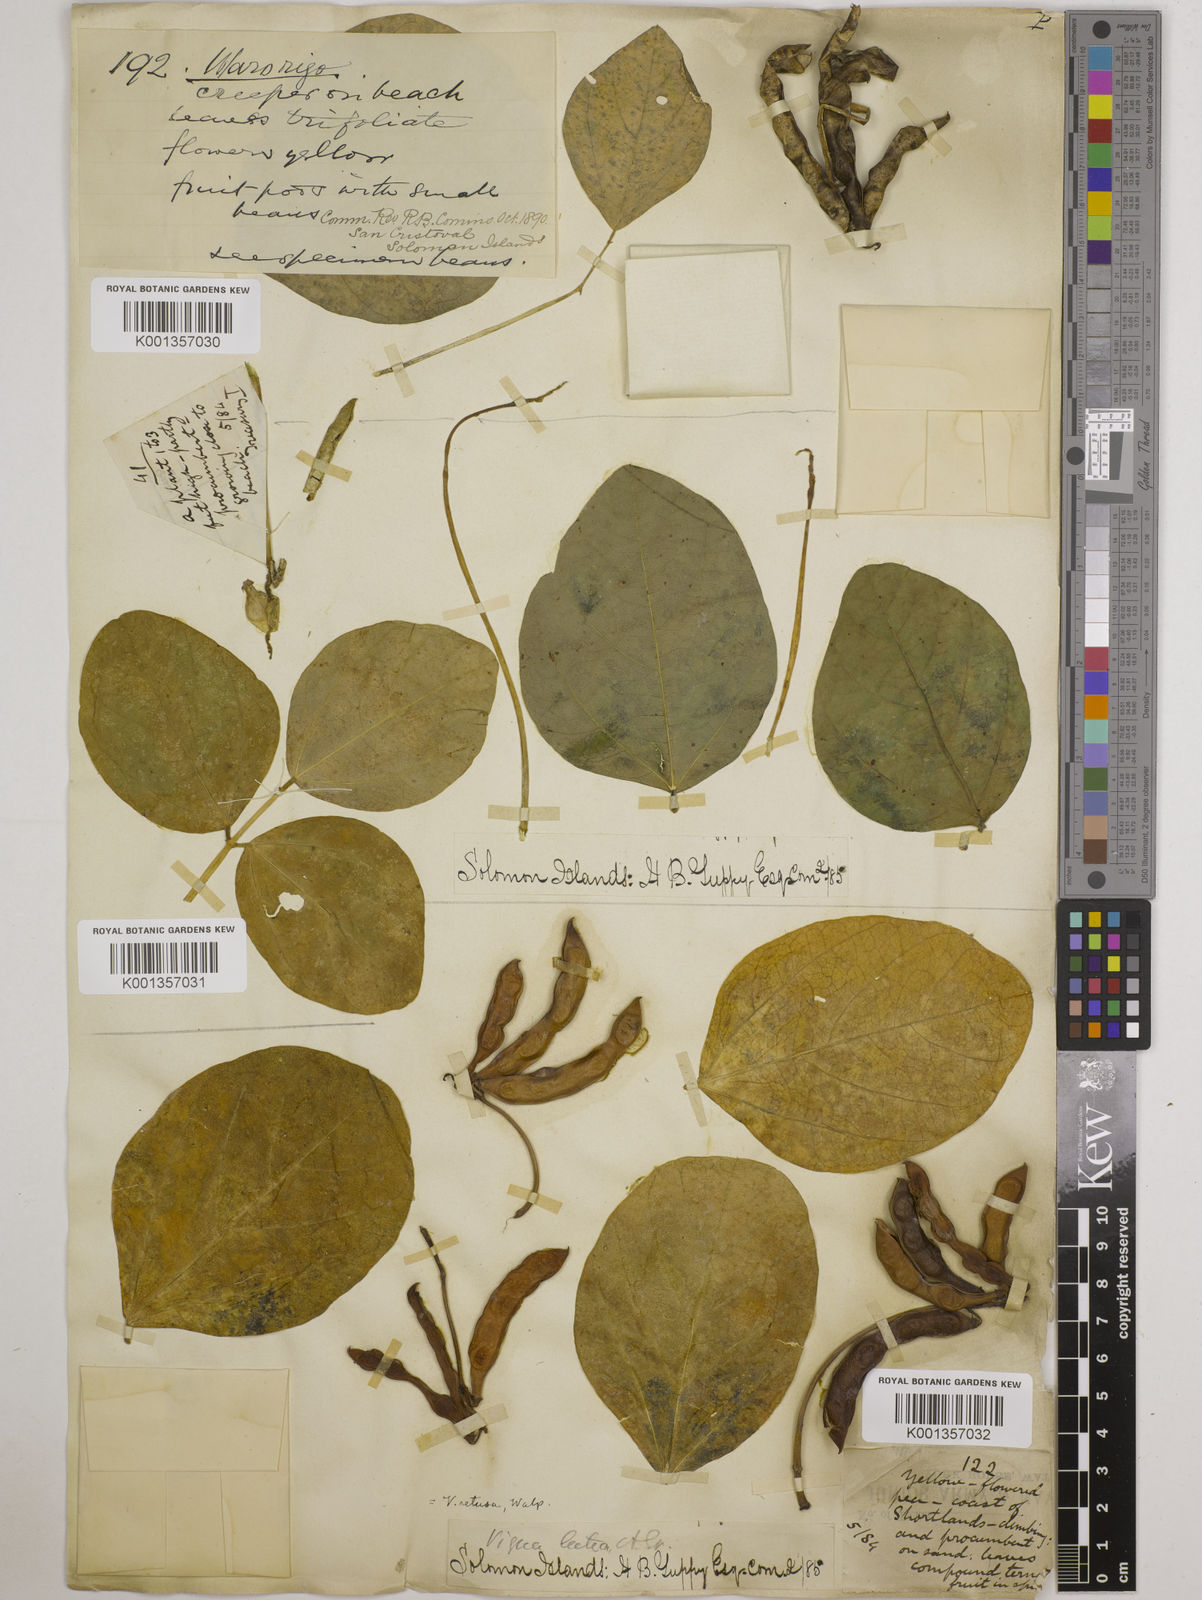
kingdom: Plantae
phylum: Tracheophyta
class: Magnoliopsida
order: Fabales
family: Fabaceae
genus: Vigna
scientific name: Vigna marina
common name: Dune-bean
